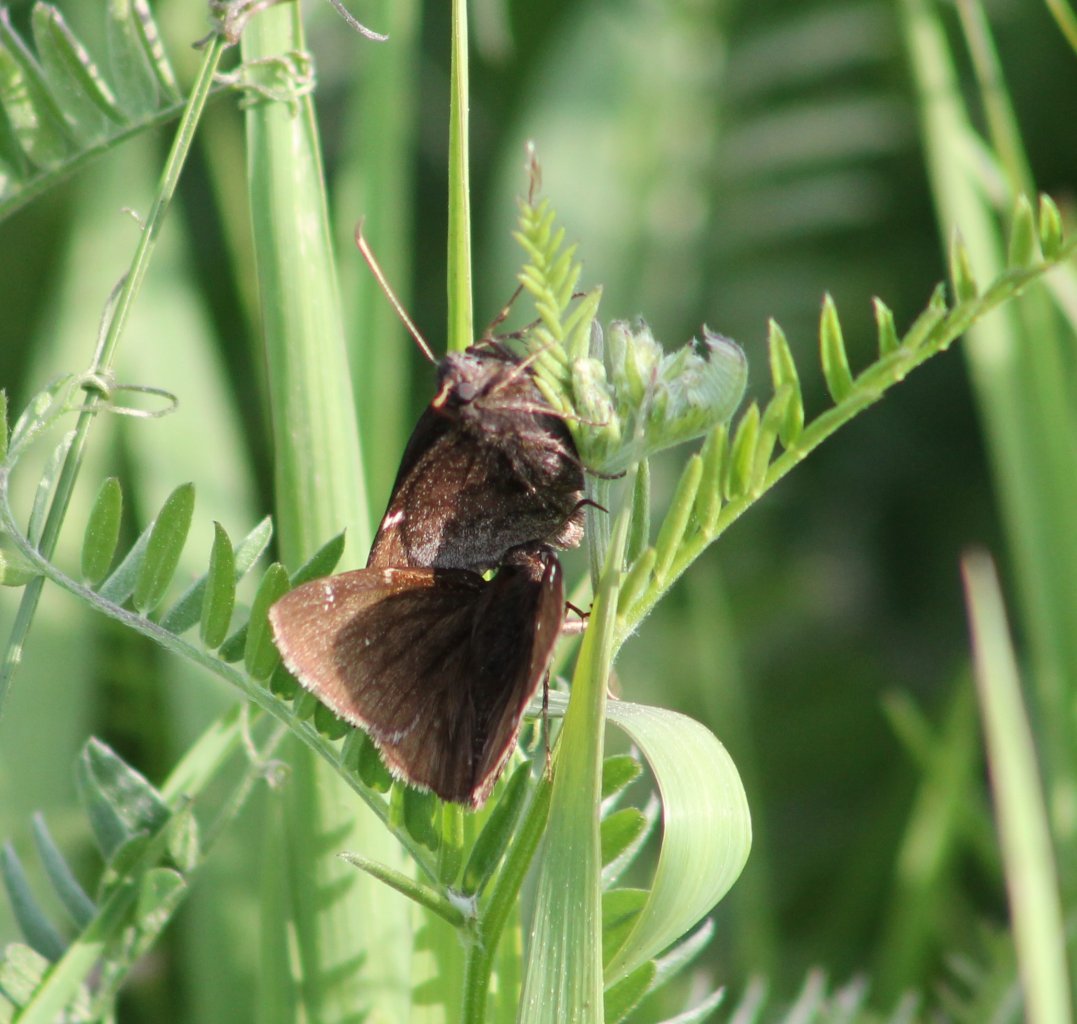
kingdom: Animalia
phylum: Arthropoda
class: Insecta
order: Lepidoptera
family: Hesperiidae
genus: Autochton
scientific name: Autochton
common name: Northern Cloudywing
